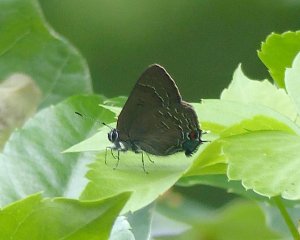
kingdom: Animalia
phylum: Arthropoda
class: Insecta
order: Lepidoptera
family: Lycaenidae
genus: Satyrium
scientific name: Satyrium calanus
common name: Banded Hairstreak
